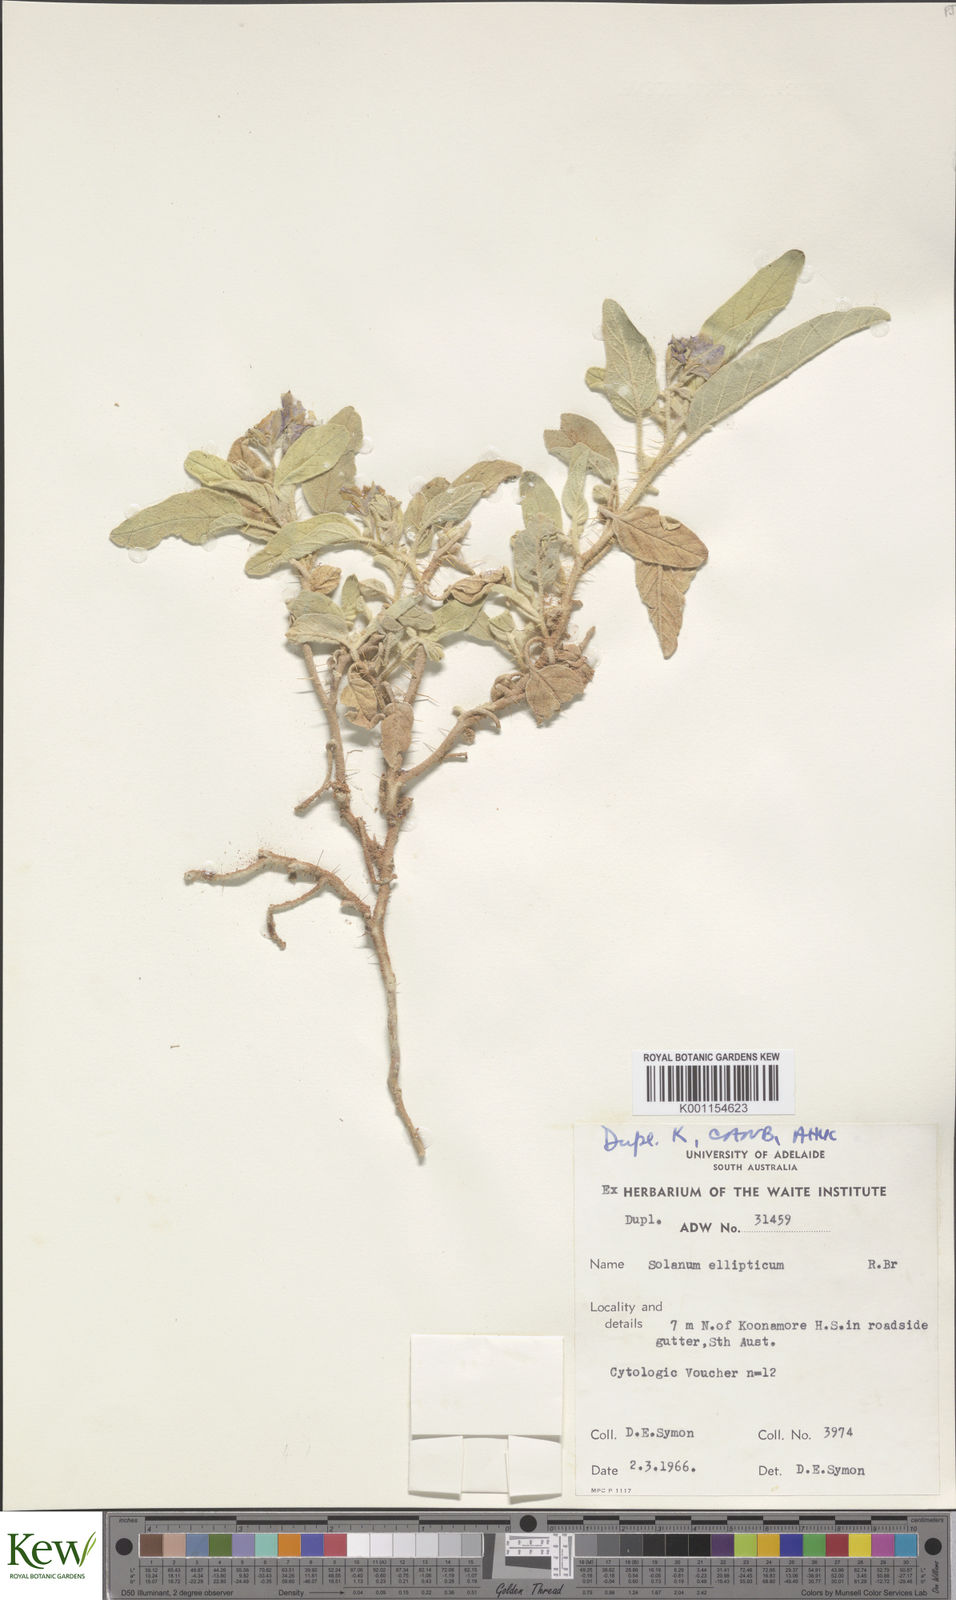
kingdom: Plantae
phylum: Tracheophyta
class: Magnoliopsida
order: Solanales
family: Solanaceae
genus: Solanum
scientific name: Solanum ellipticum
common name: Potato-bush
